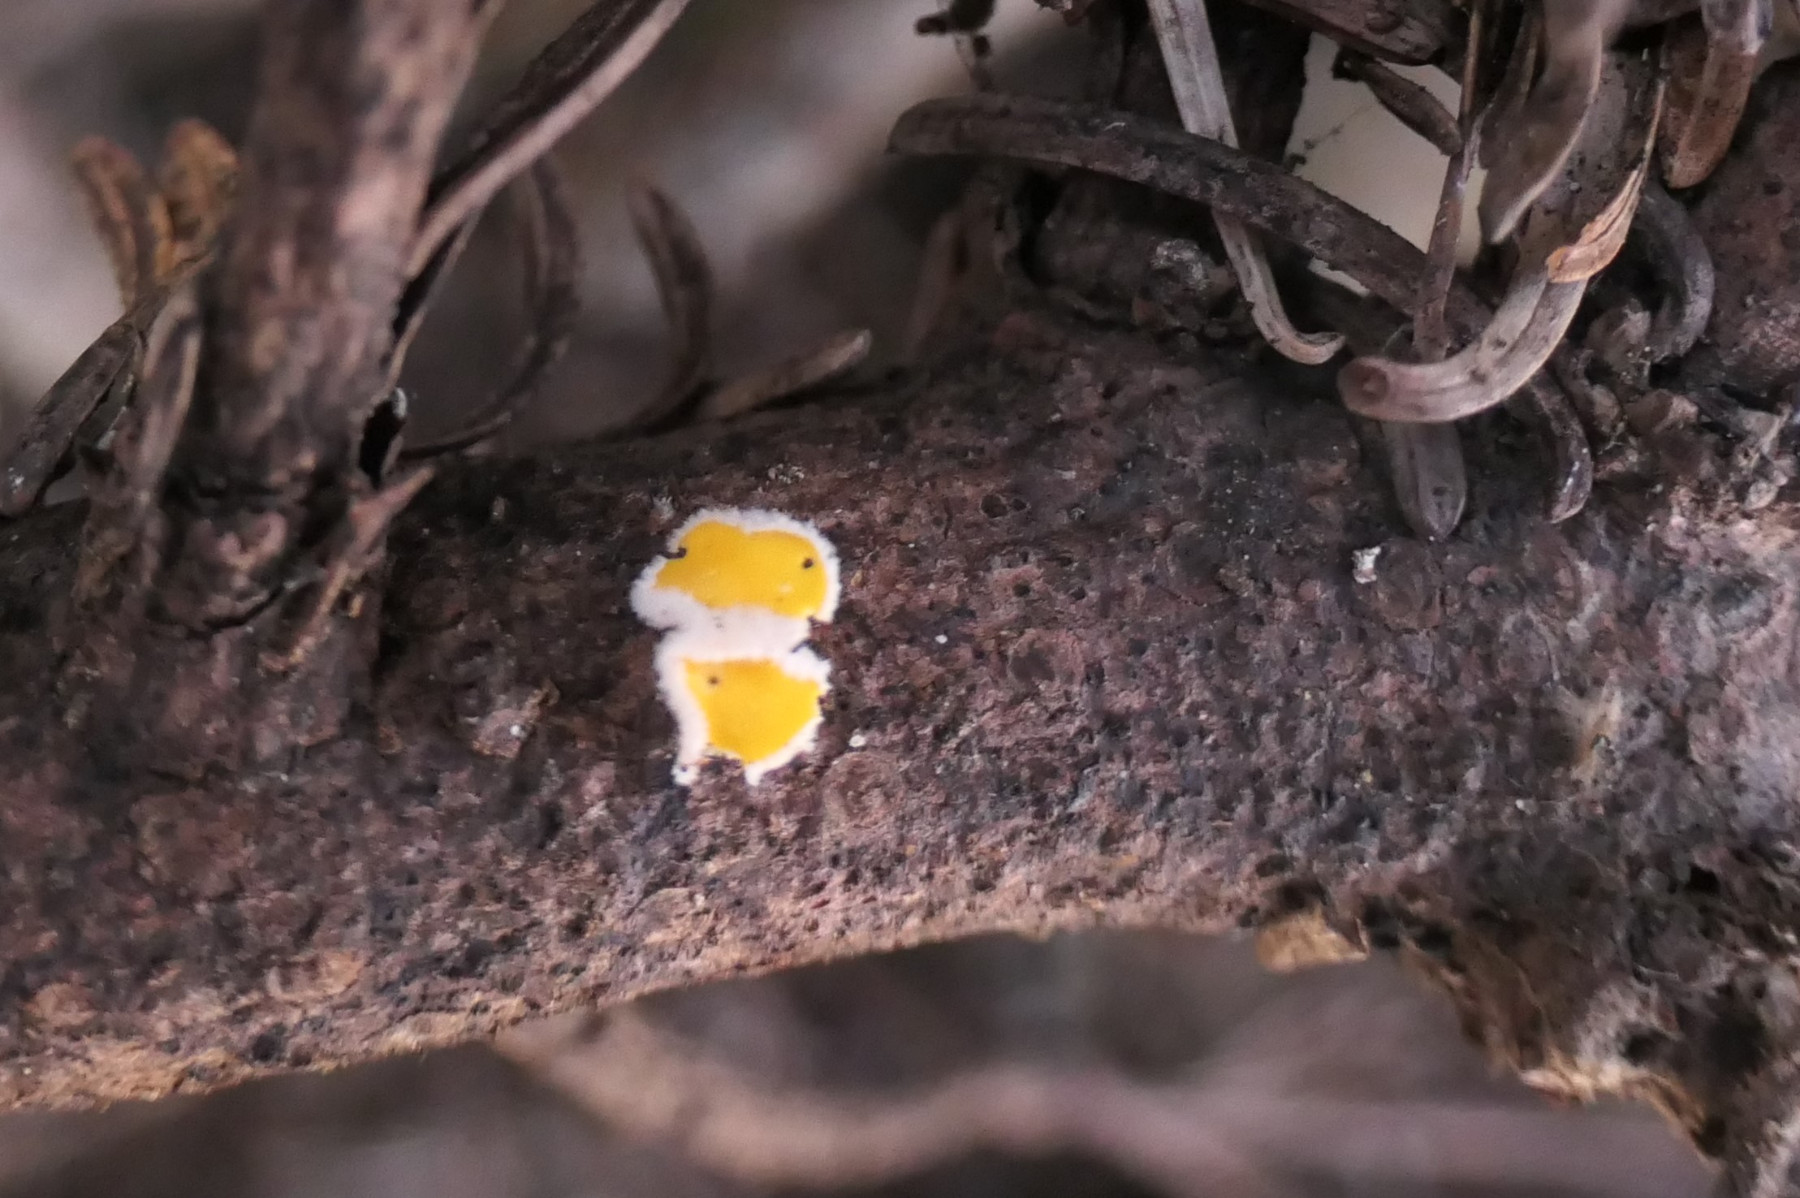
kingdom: Fungi
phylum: Ascomycota
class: Leotiomycetes
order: Helotiales
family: Lachnaceae
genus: Perrotia
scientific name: Perrotia gallica
